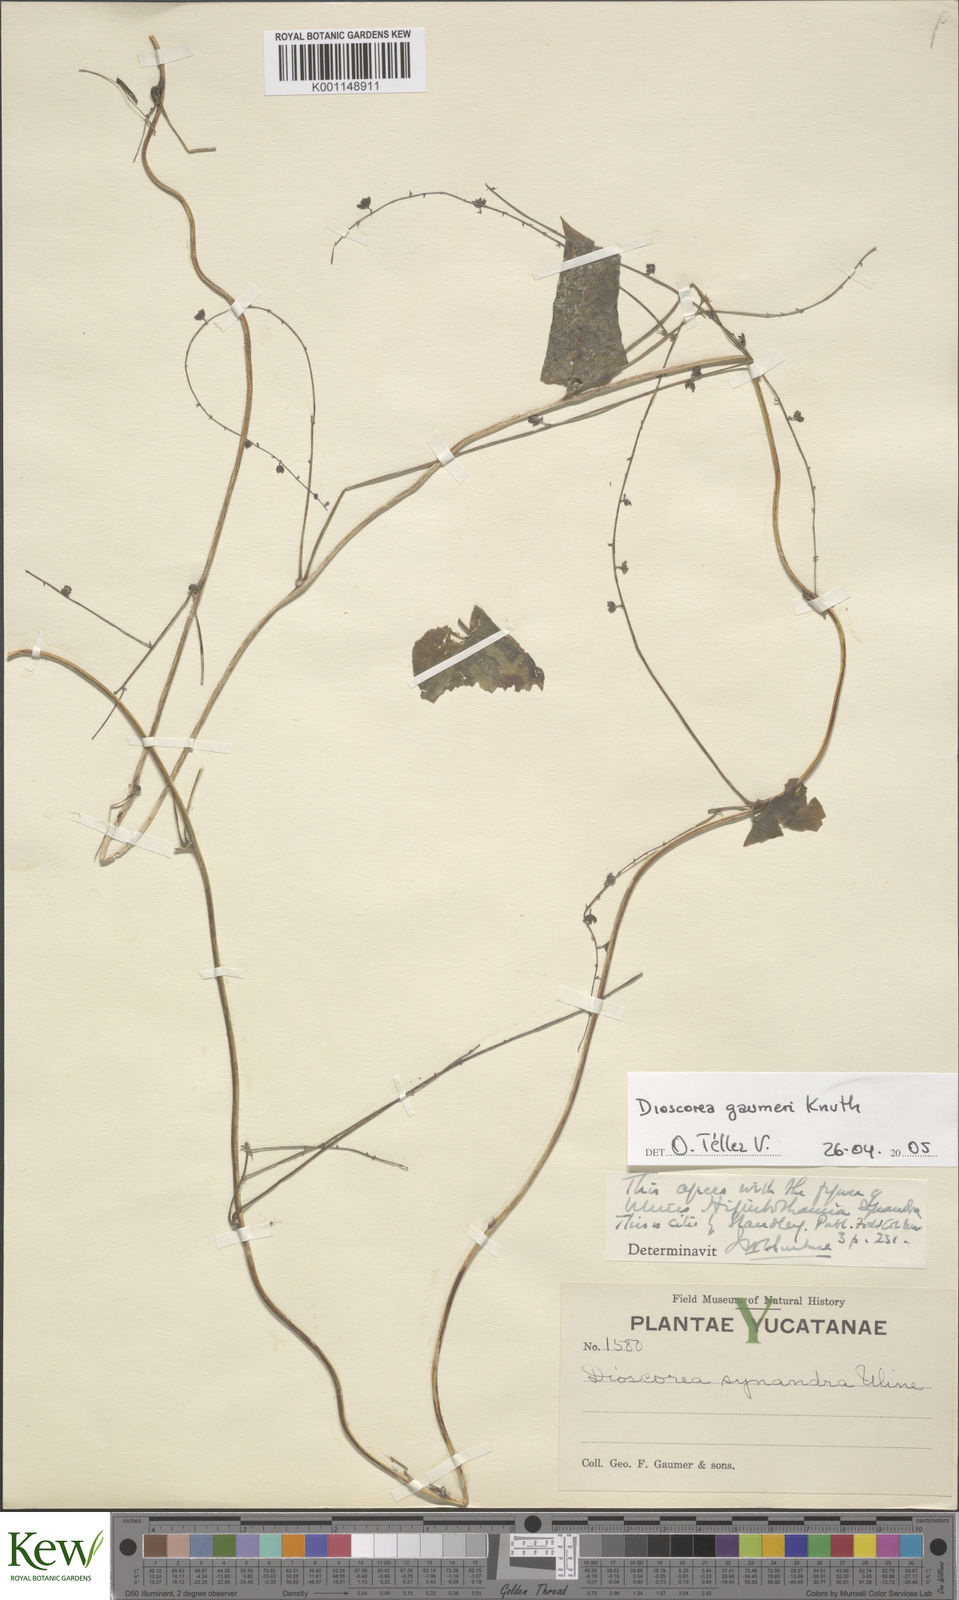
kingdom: Plantae
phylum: Tracheophyta
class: Liliopsida
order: Dioscoreales
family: Dioscoreaceae
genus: Dioscorea
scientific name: Dioscorea gaumeri
